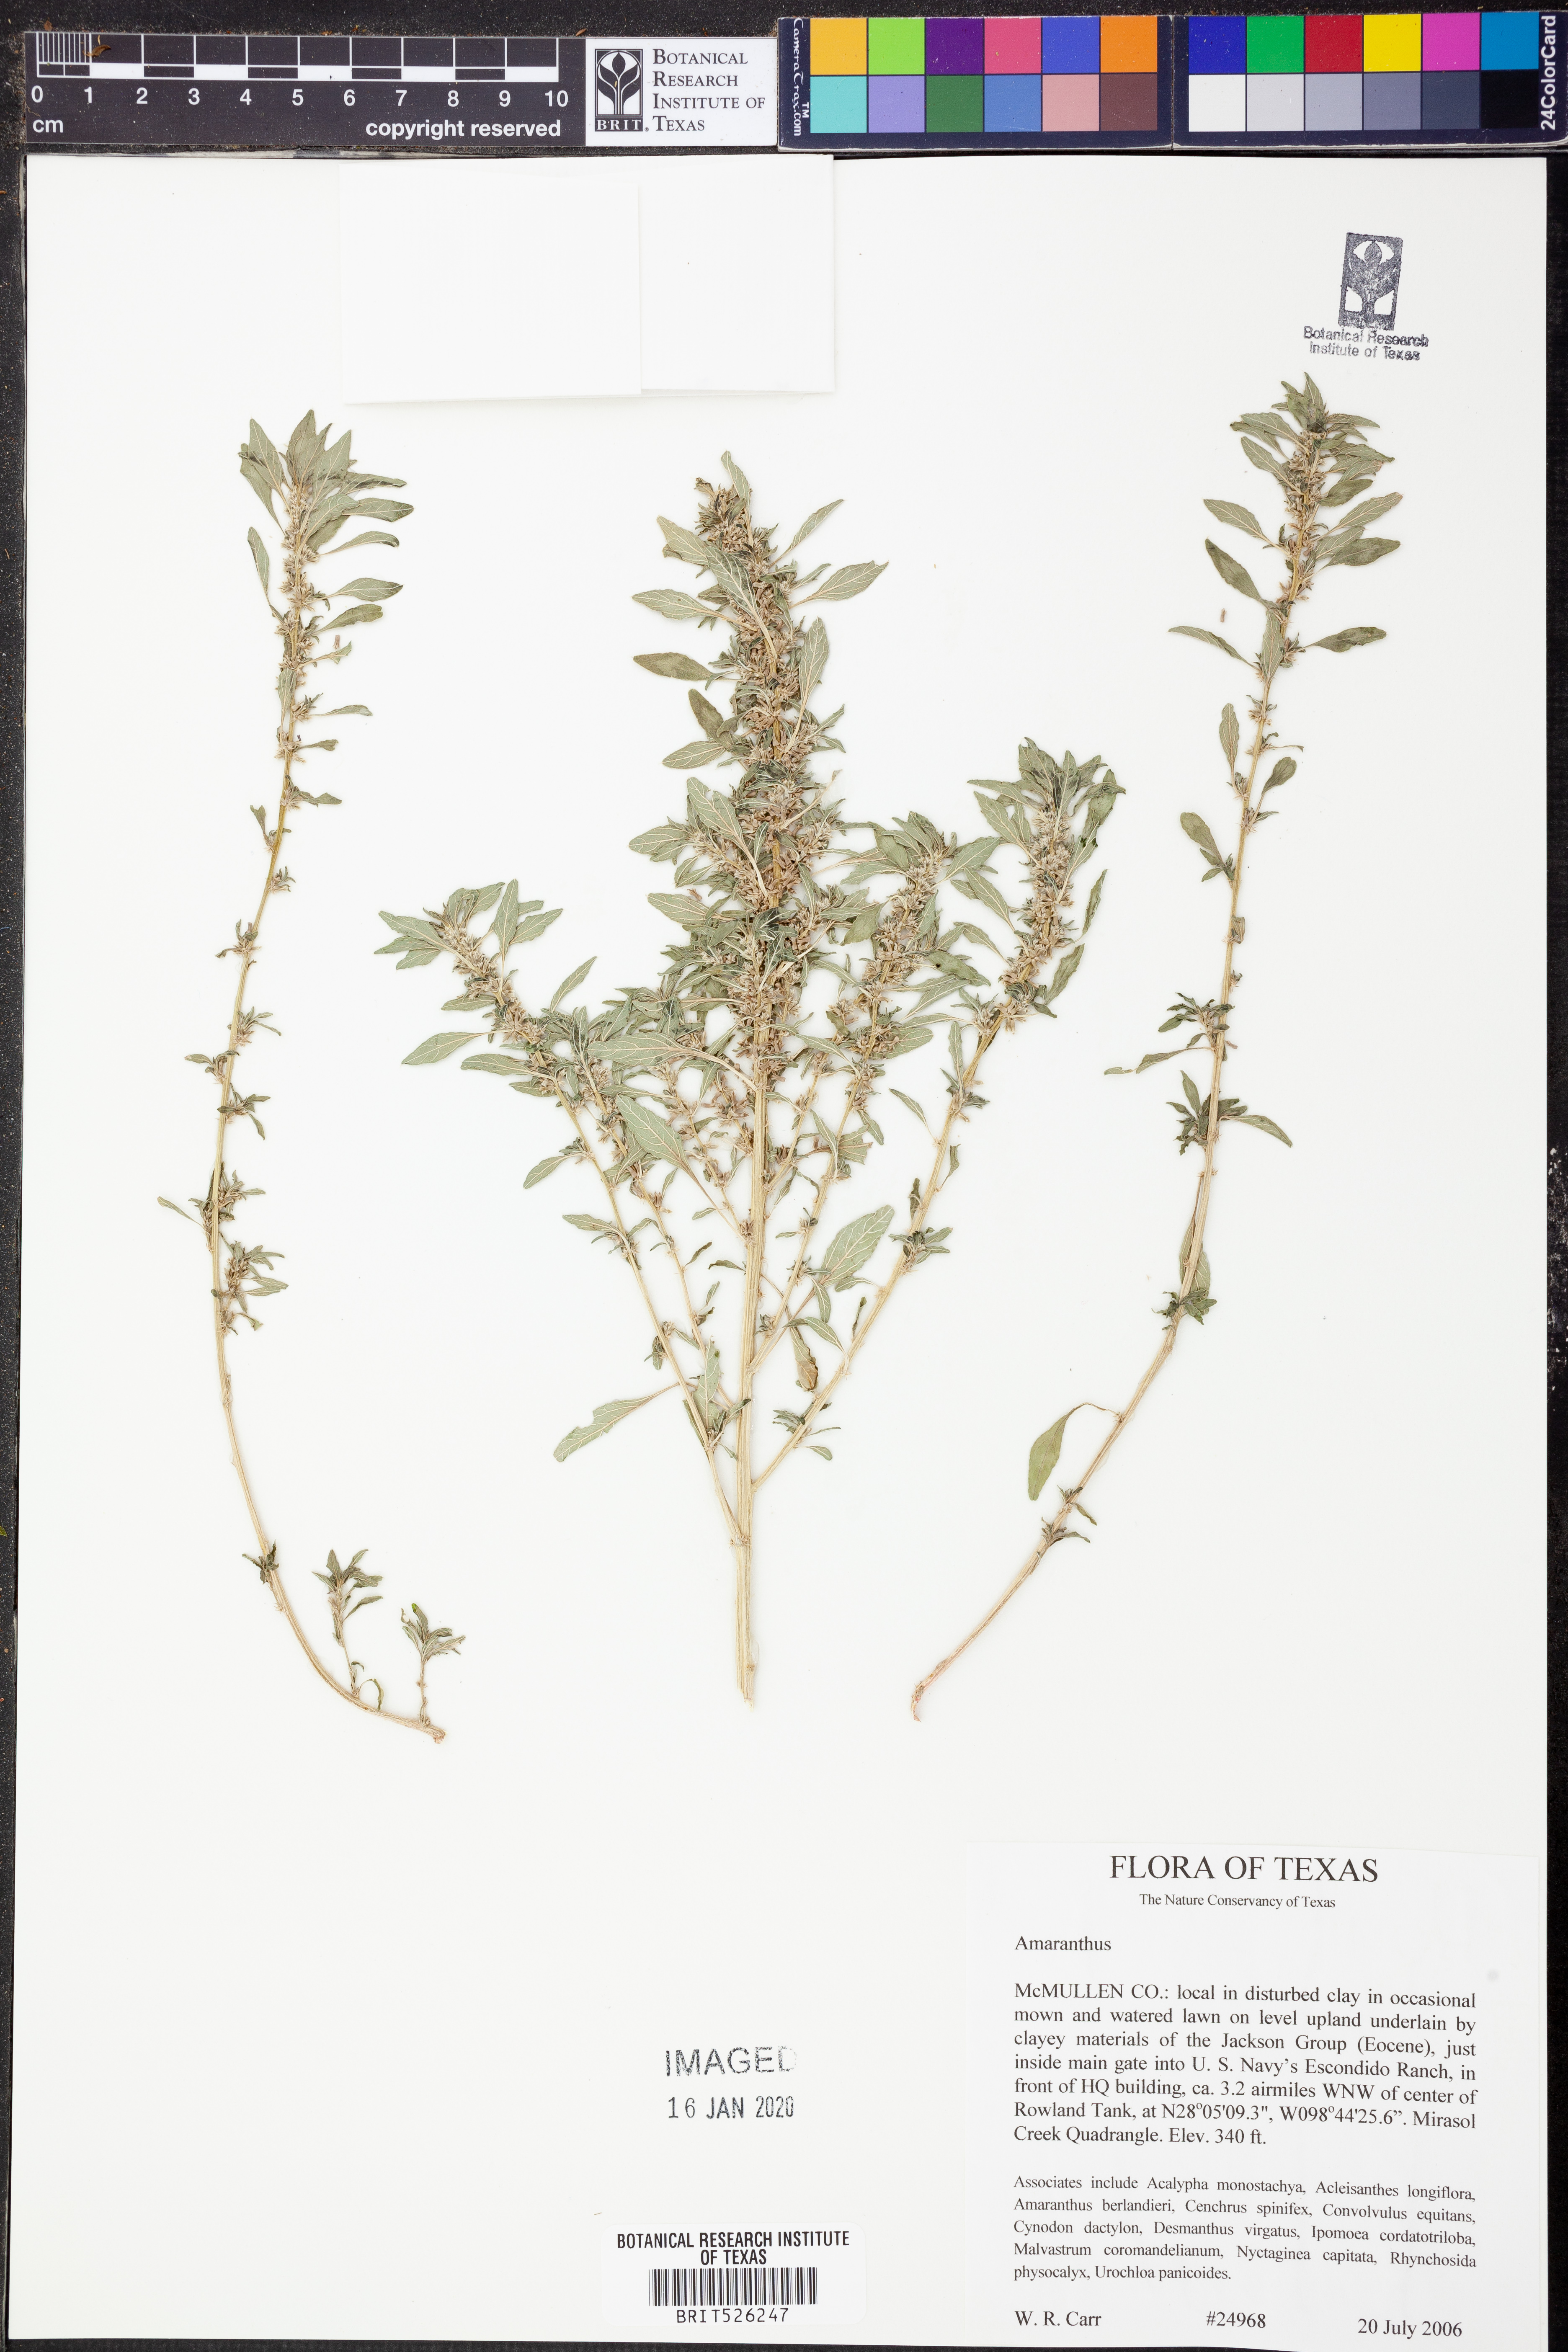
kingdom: Plantae
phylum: Tracheophyta
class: Magnoliopsida
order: Caryophyllales
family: Amaranthaceae
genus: Amaranthus
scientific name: Amaranthus
